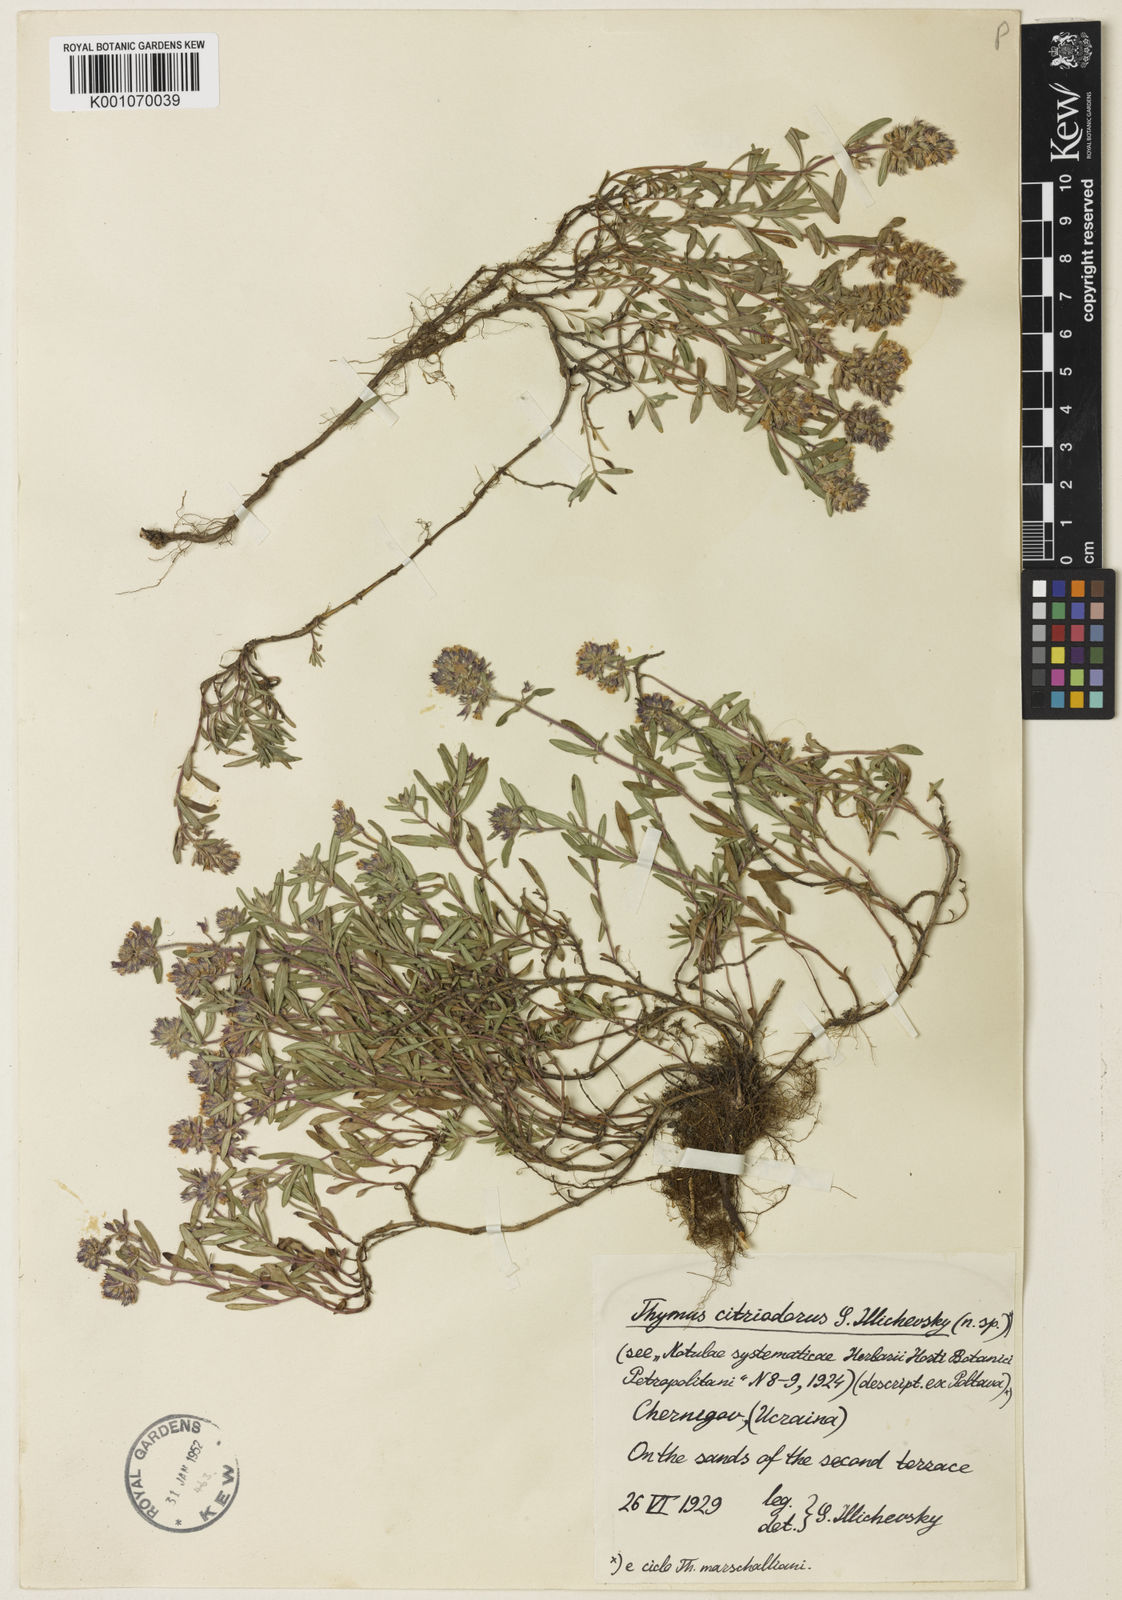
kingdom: Plantae
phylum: Tracheophyta
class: Magnoliopsida
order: Lamiales
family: Lamiaceae
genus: Thymus
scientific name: Thymus vulgaris
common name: Garden thyme
